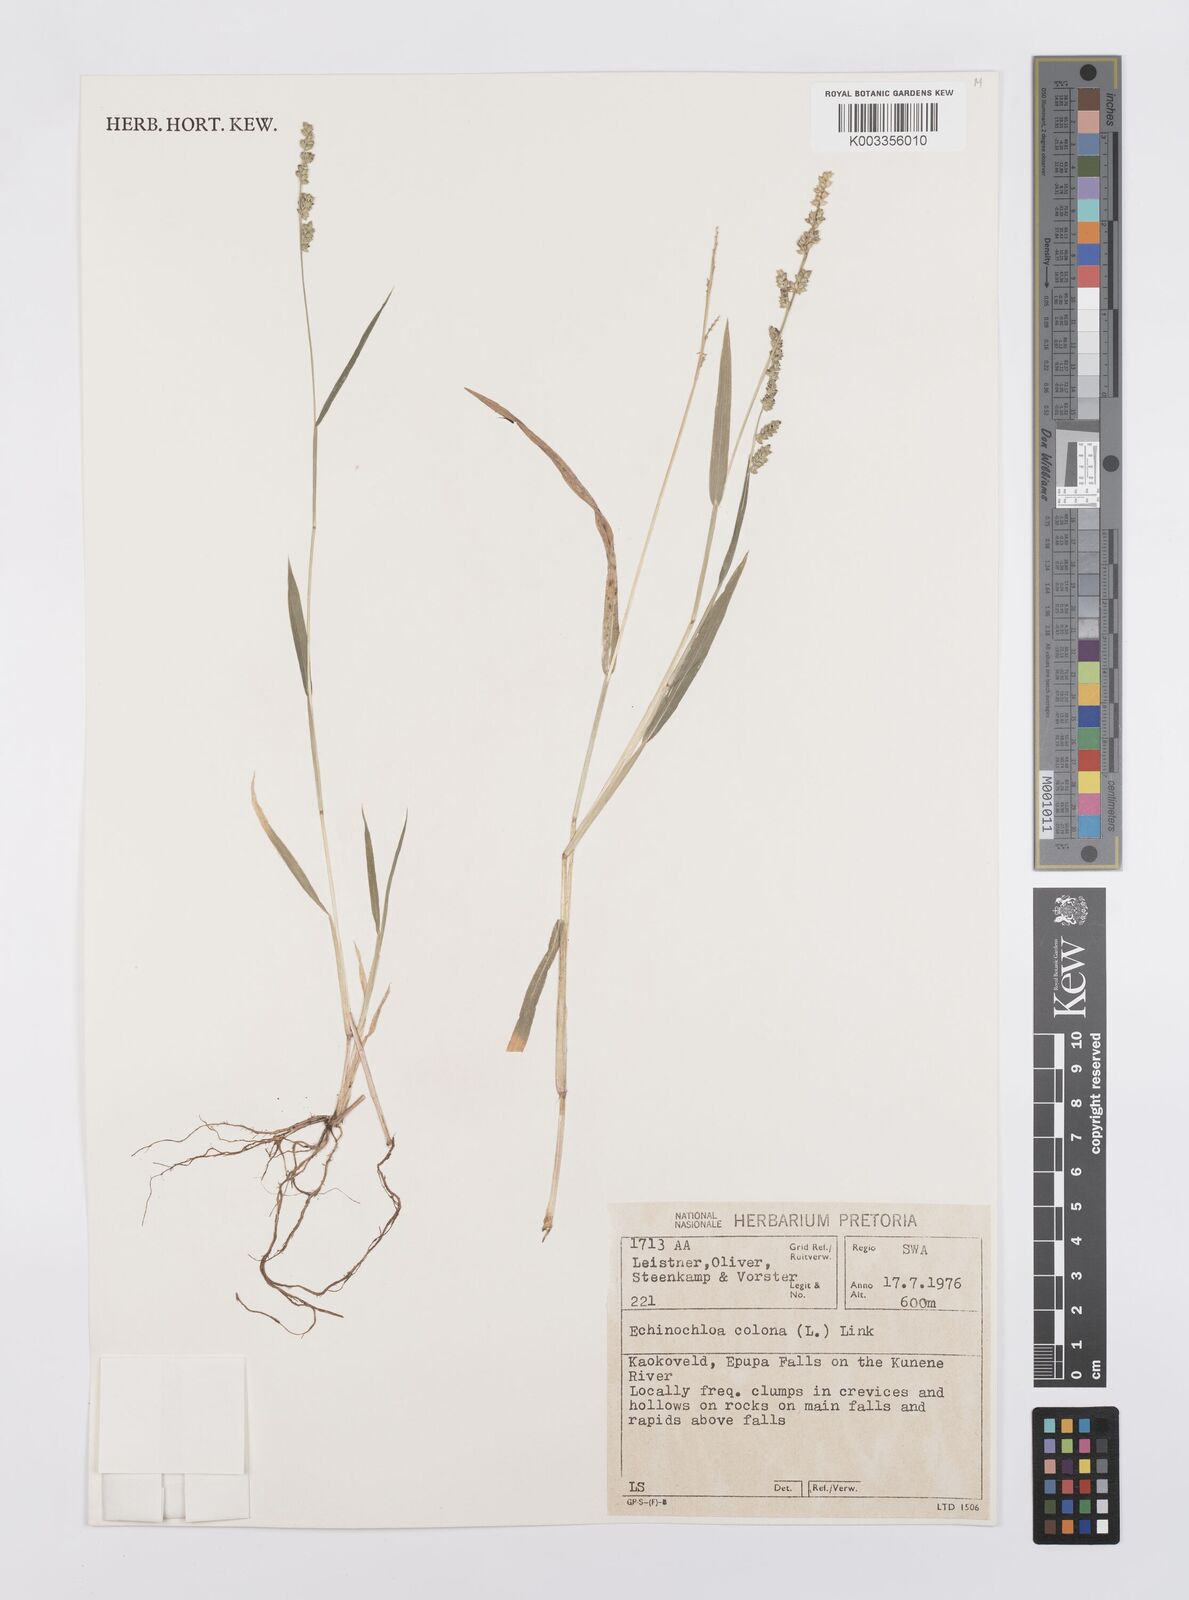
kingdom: Plantae
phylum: Tracheophyta
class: Liliopsida
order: Poales
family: Poaceae
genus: Echinochloa
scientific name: Echinochloa colonum
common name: Jungle rice
